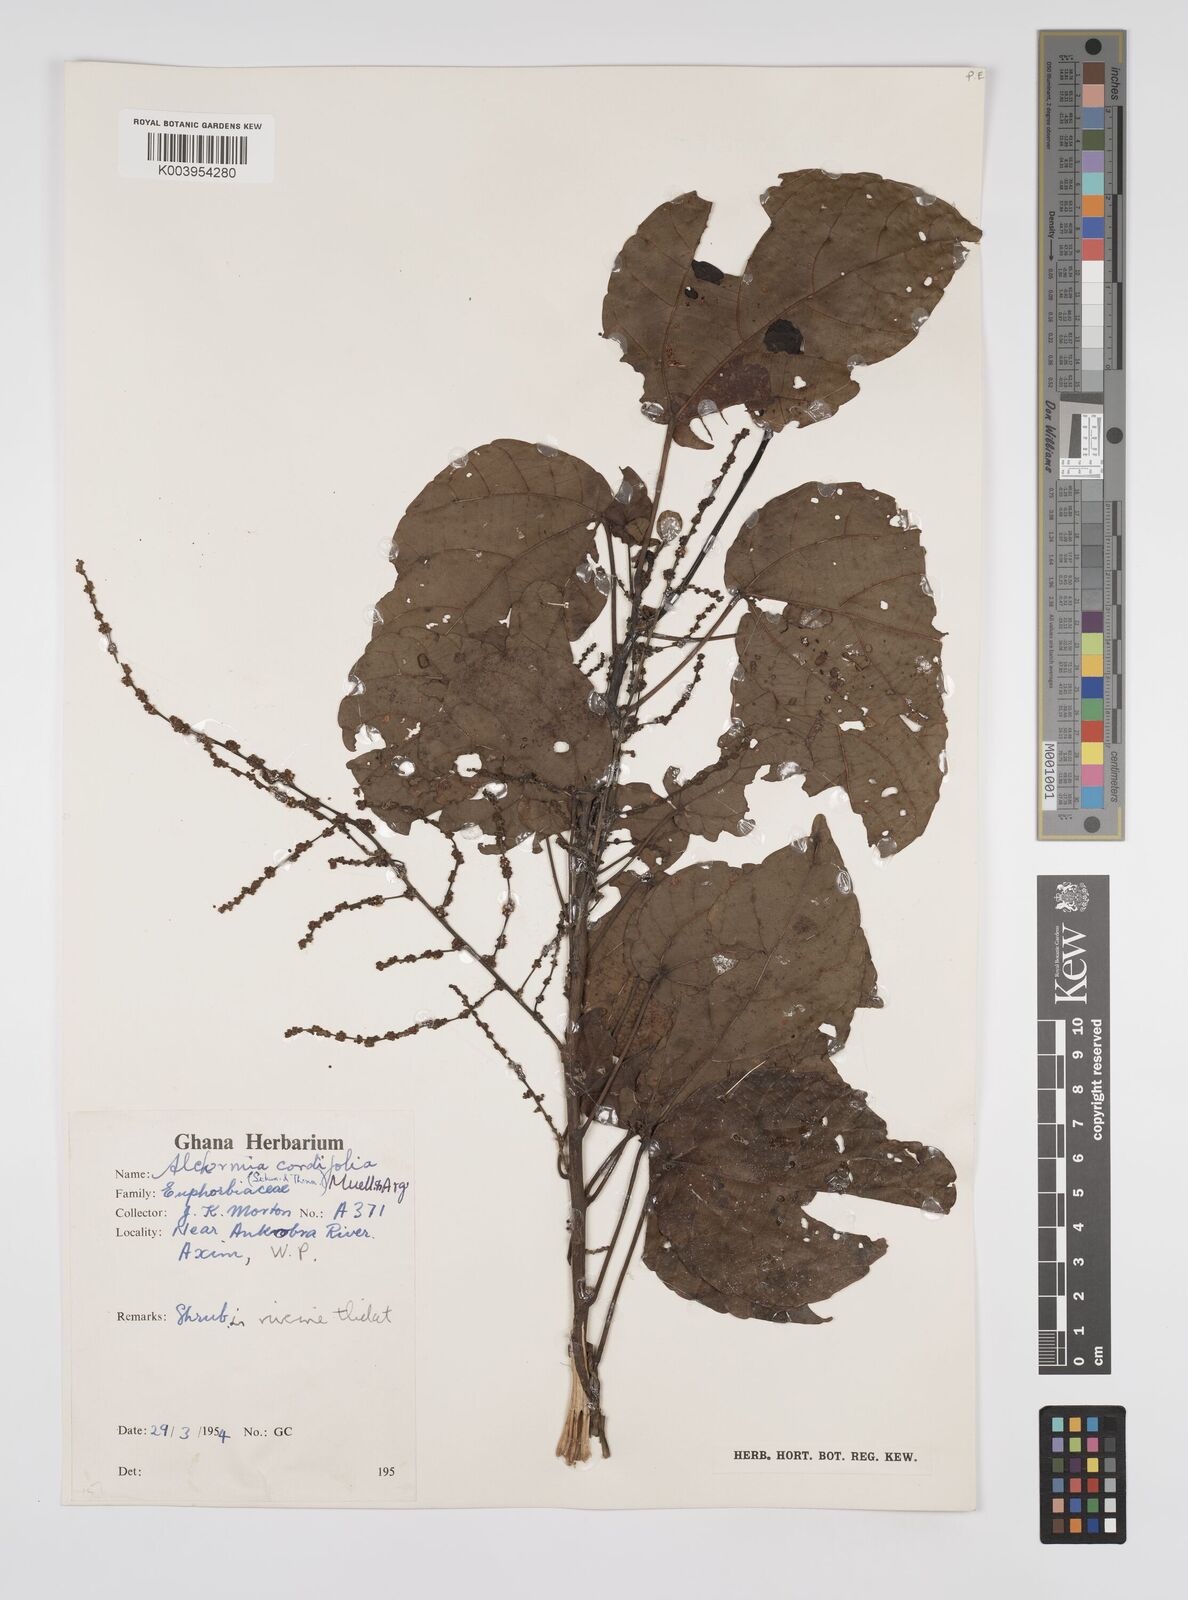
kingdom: Plantae
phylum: Tracheophyta
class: Magnoliopsida
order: Malpighiales
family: Euphorbiaceae
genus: Alchornea
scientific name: Alchornea cordifolia
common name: Christmasbush
